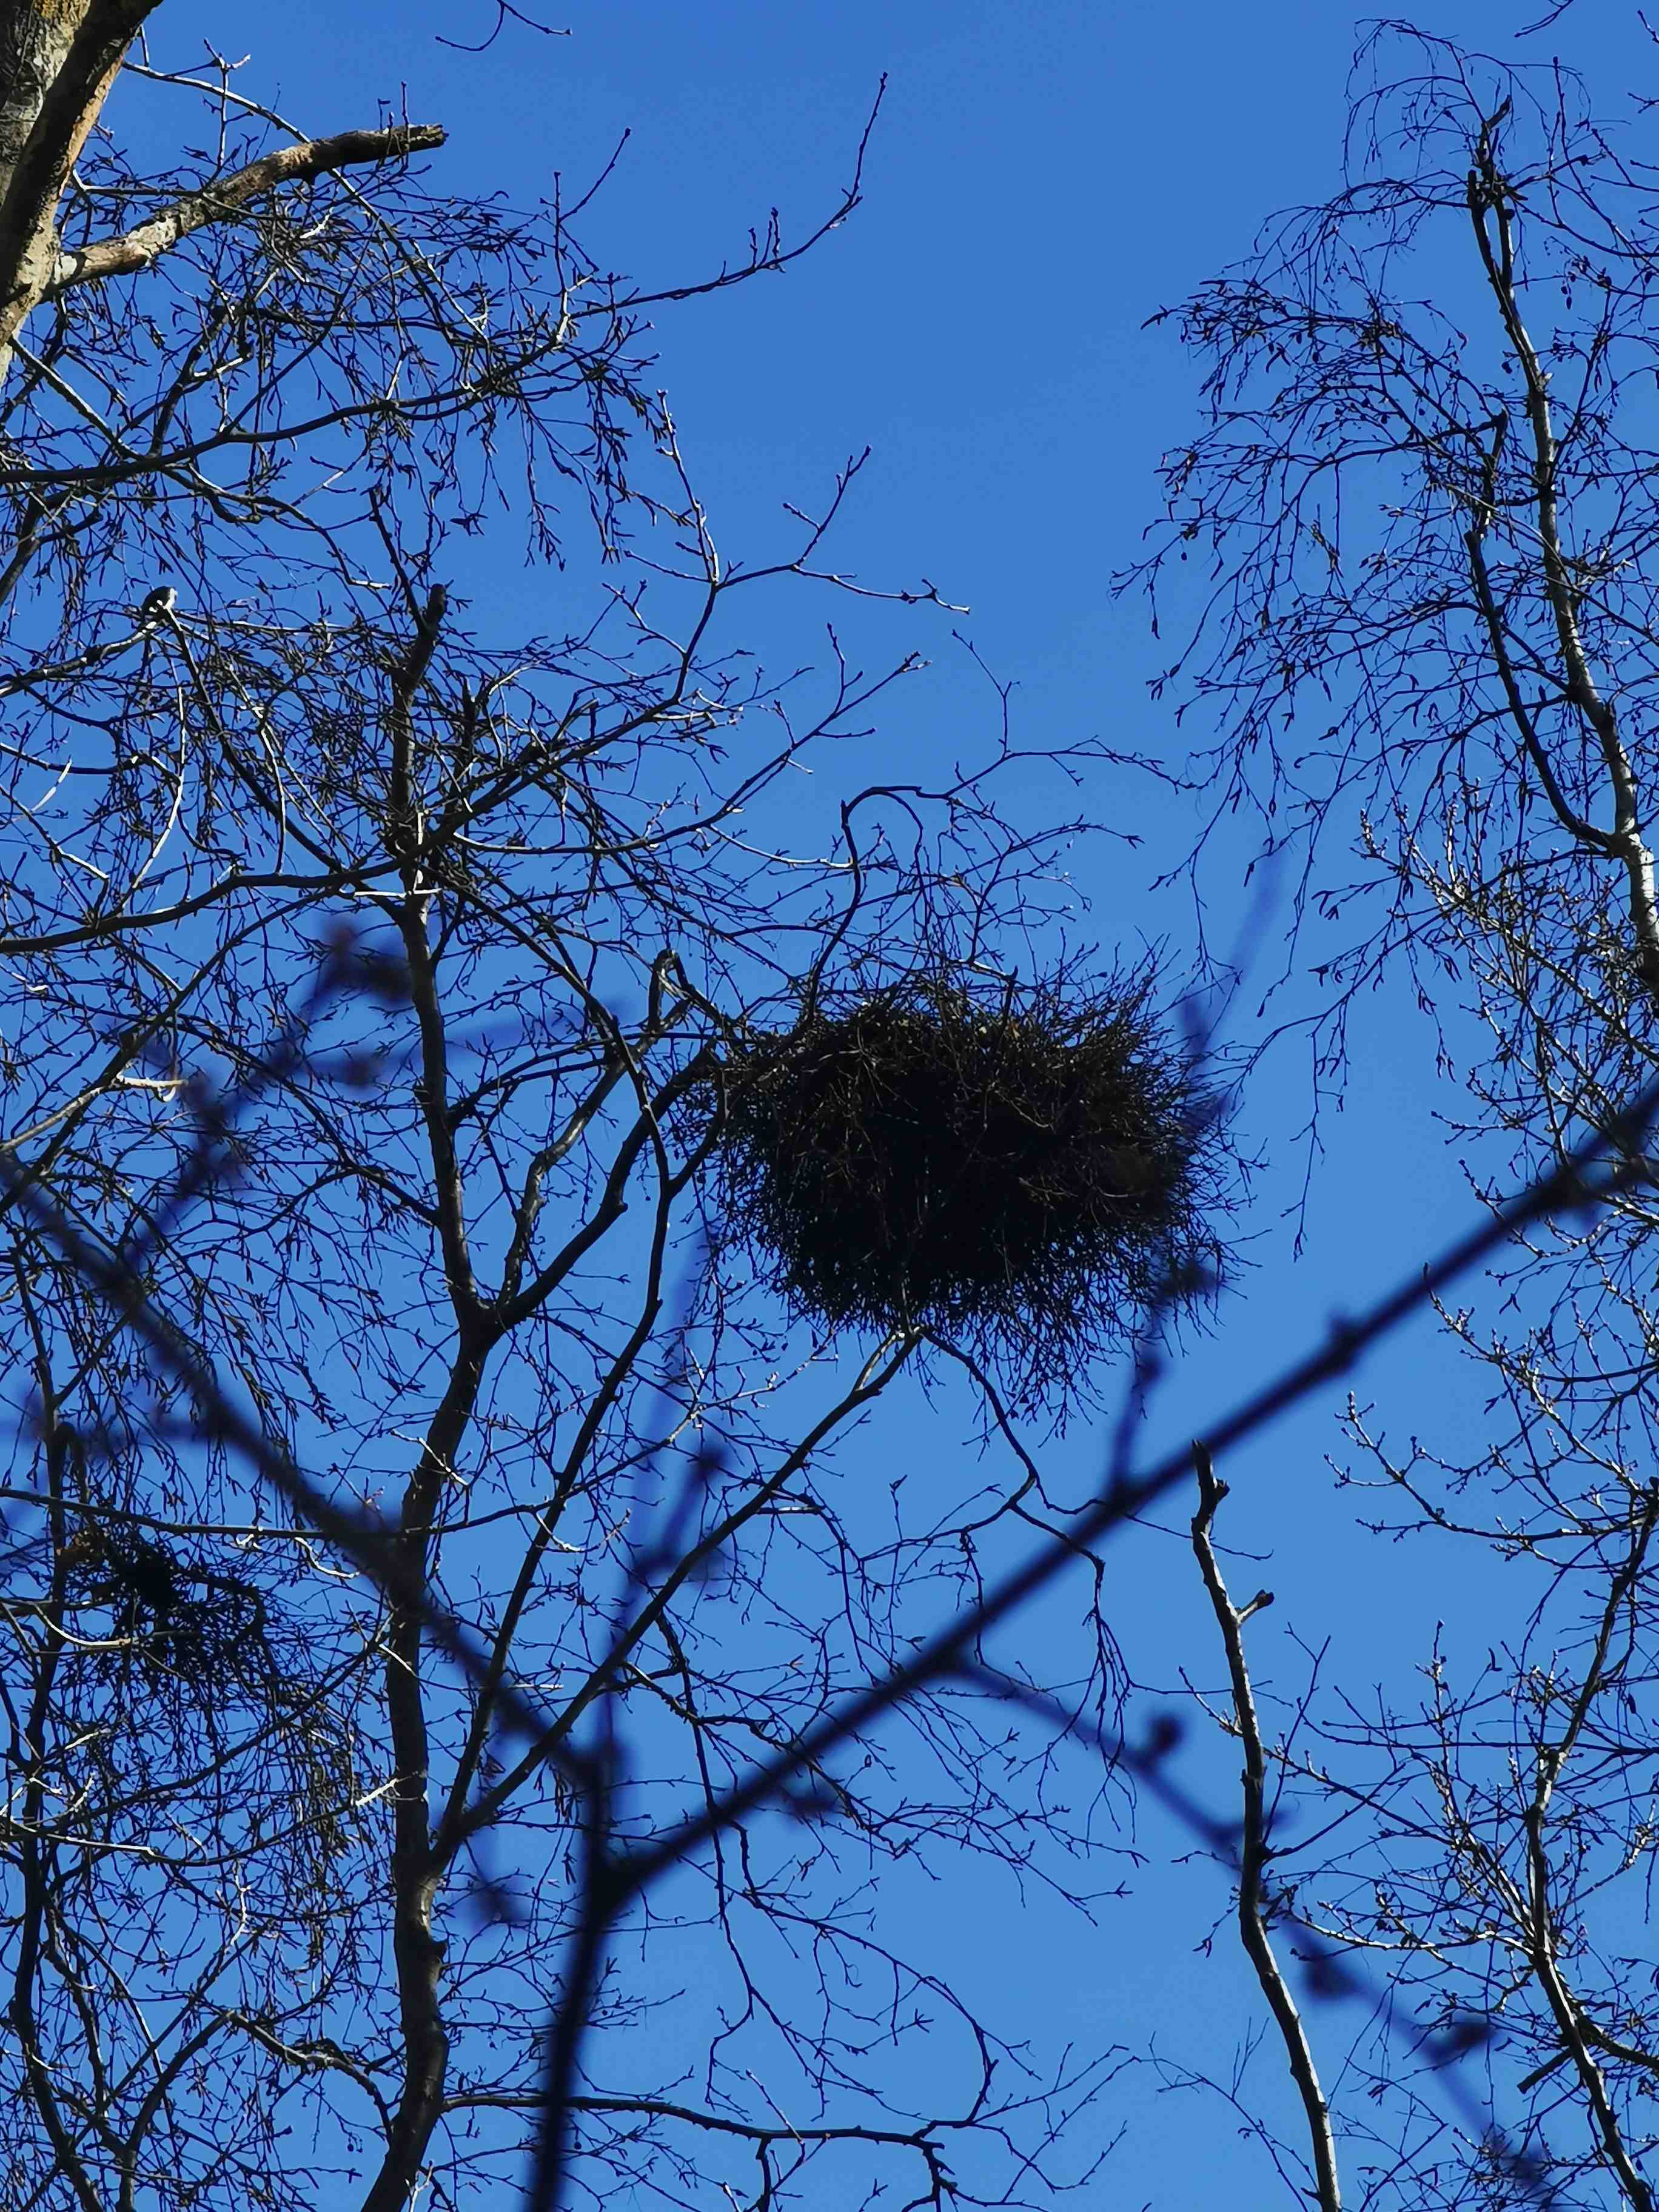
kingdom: Fungi
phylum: Ascomycota
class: Taphrinomycetes
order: Taphrinales
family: Taphrinaceae
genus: Taphrina
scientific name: Taphrina betulina
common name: hekse-sækdug
